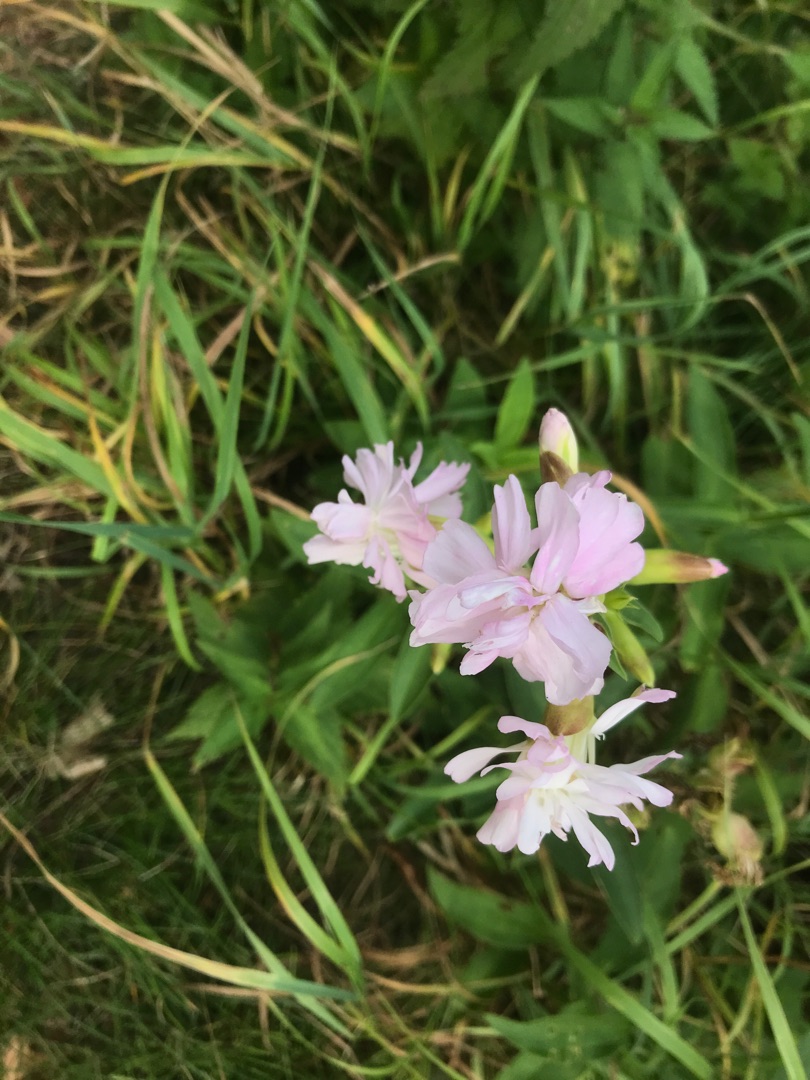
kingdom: Plantae
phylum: Tracheophyta
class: Magnoliopsida
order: Caryophyllales
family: Caryophyllaceae
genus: Saponaria
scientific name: Saponaria officinalis
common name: Sæbeurt
